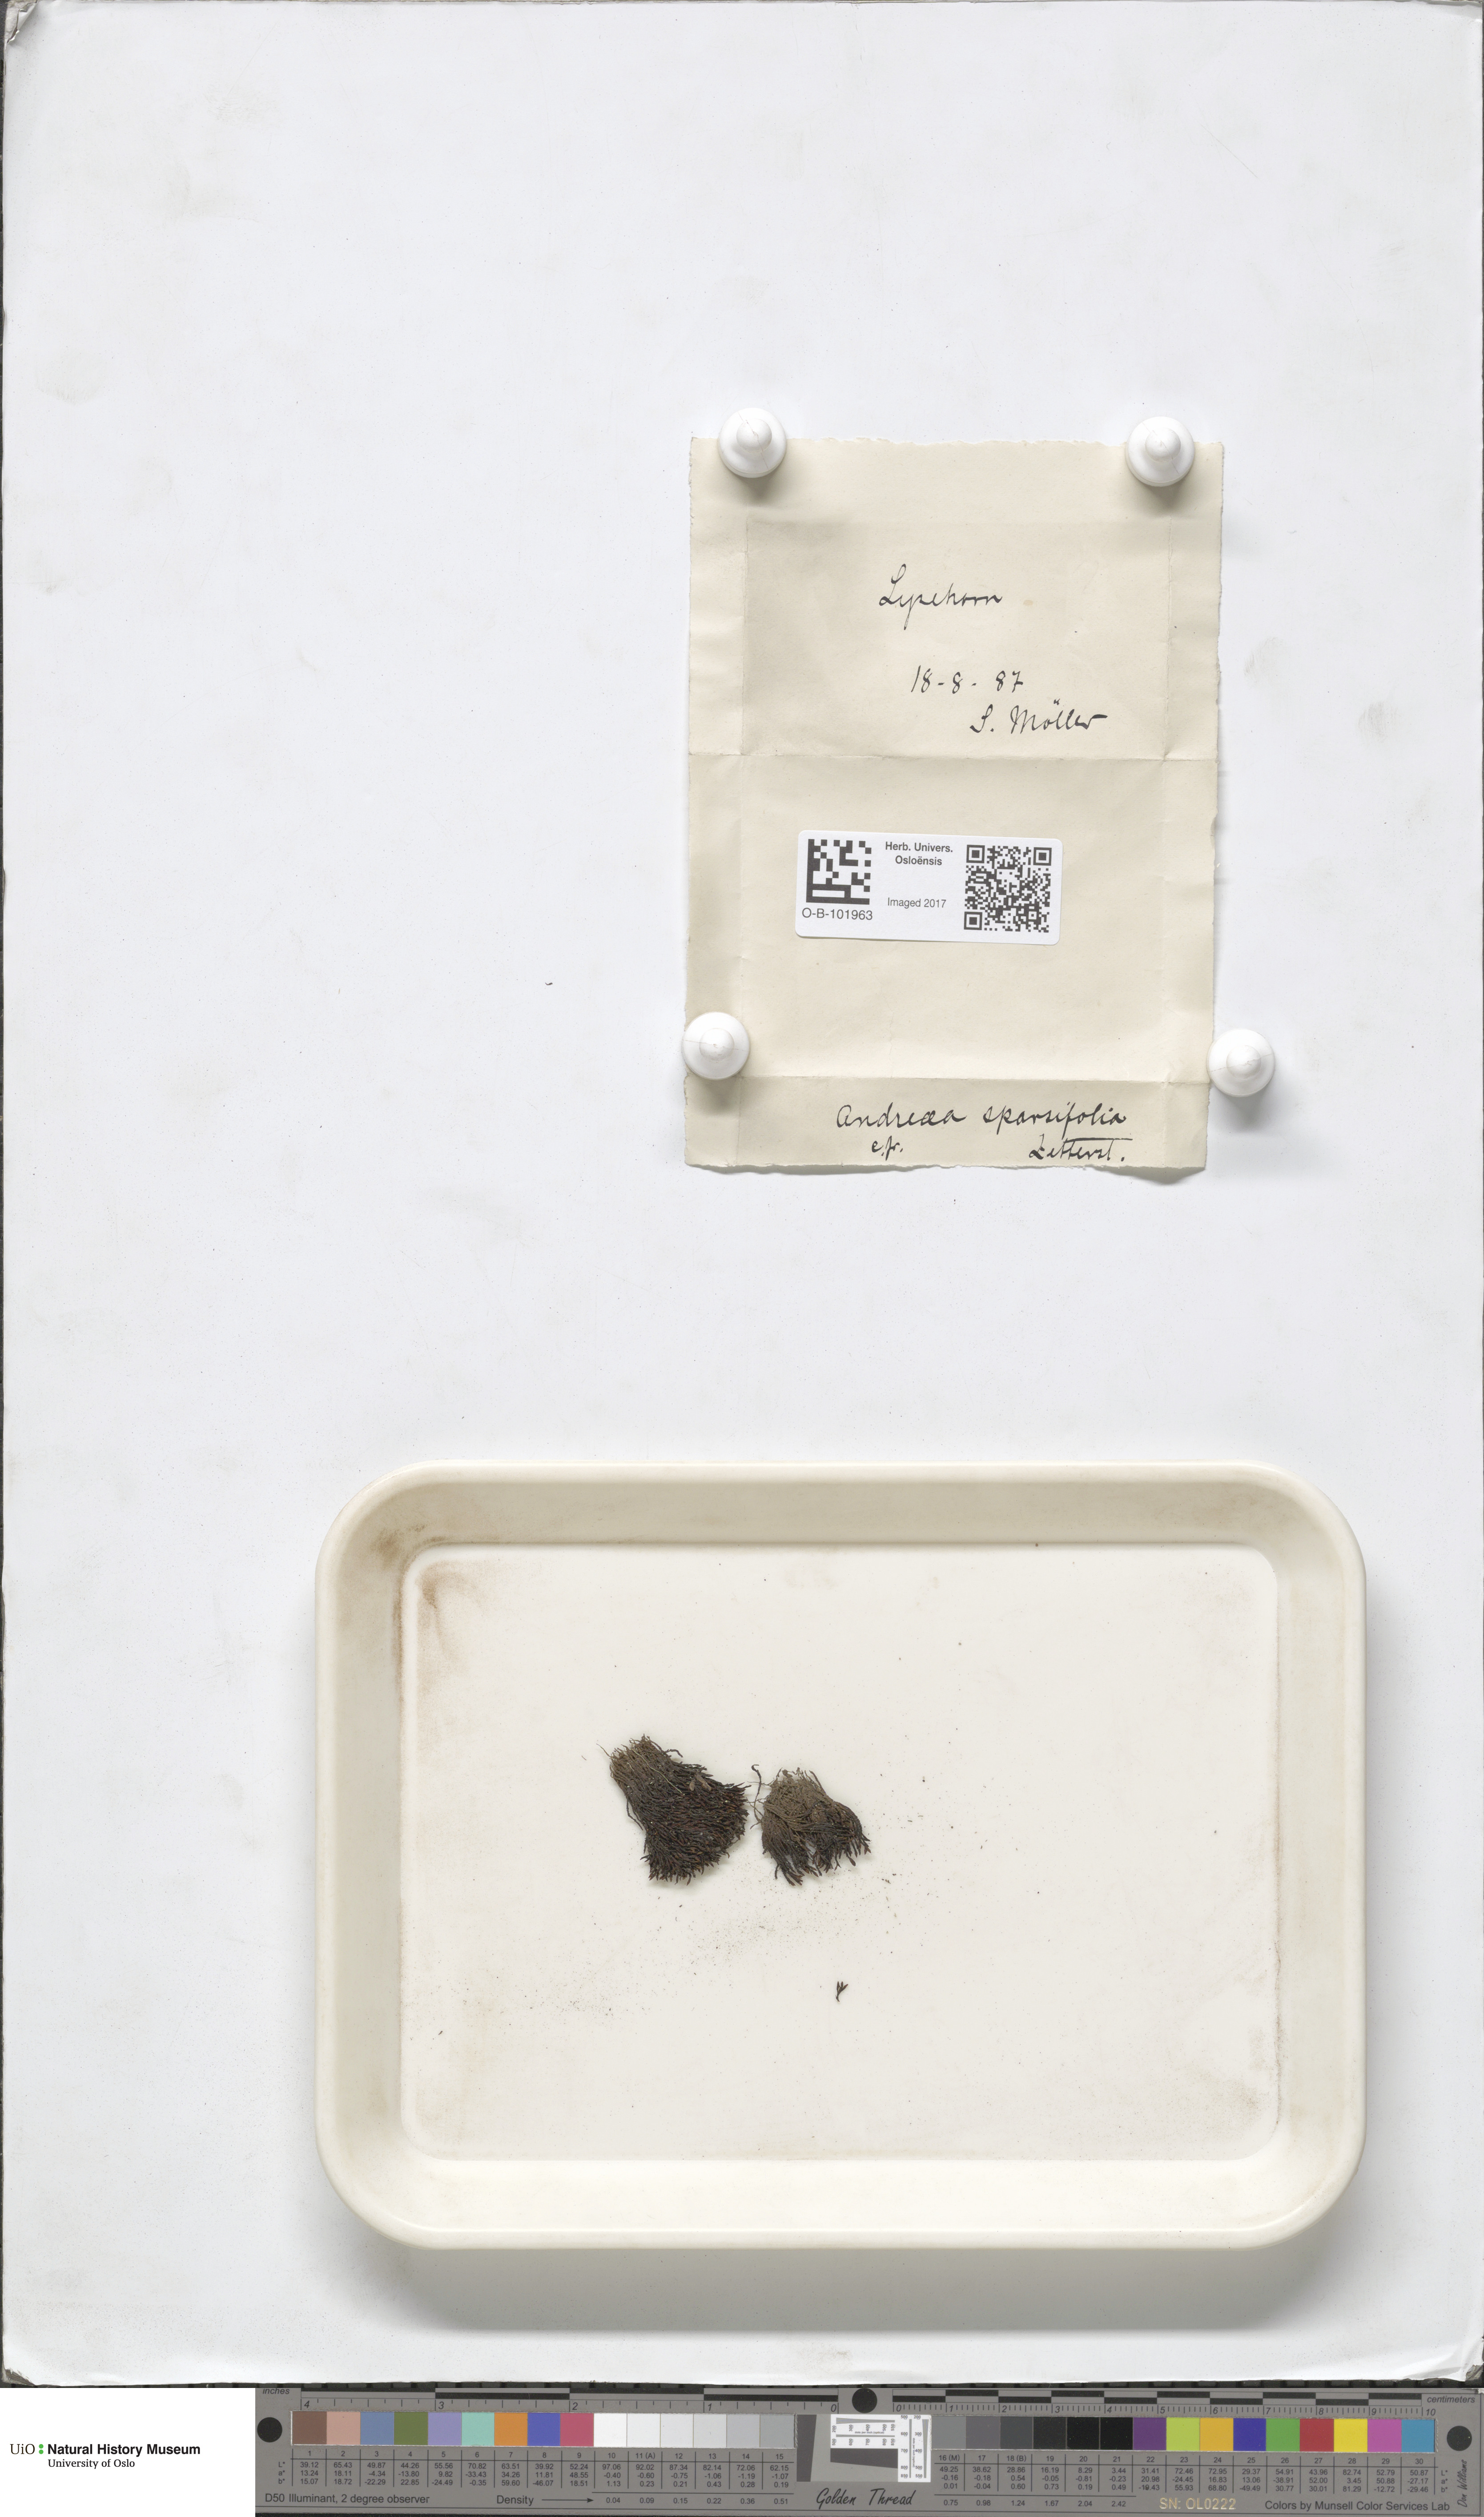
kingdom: Plantae
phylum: Bryophyta
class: Andreaeopsida
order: Andreaeales
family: Andreaeaceae
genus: Andreaea
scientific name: Andreaea rupestris
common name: Black rock moss
